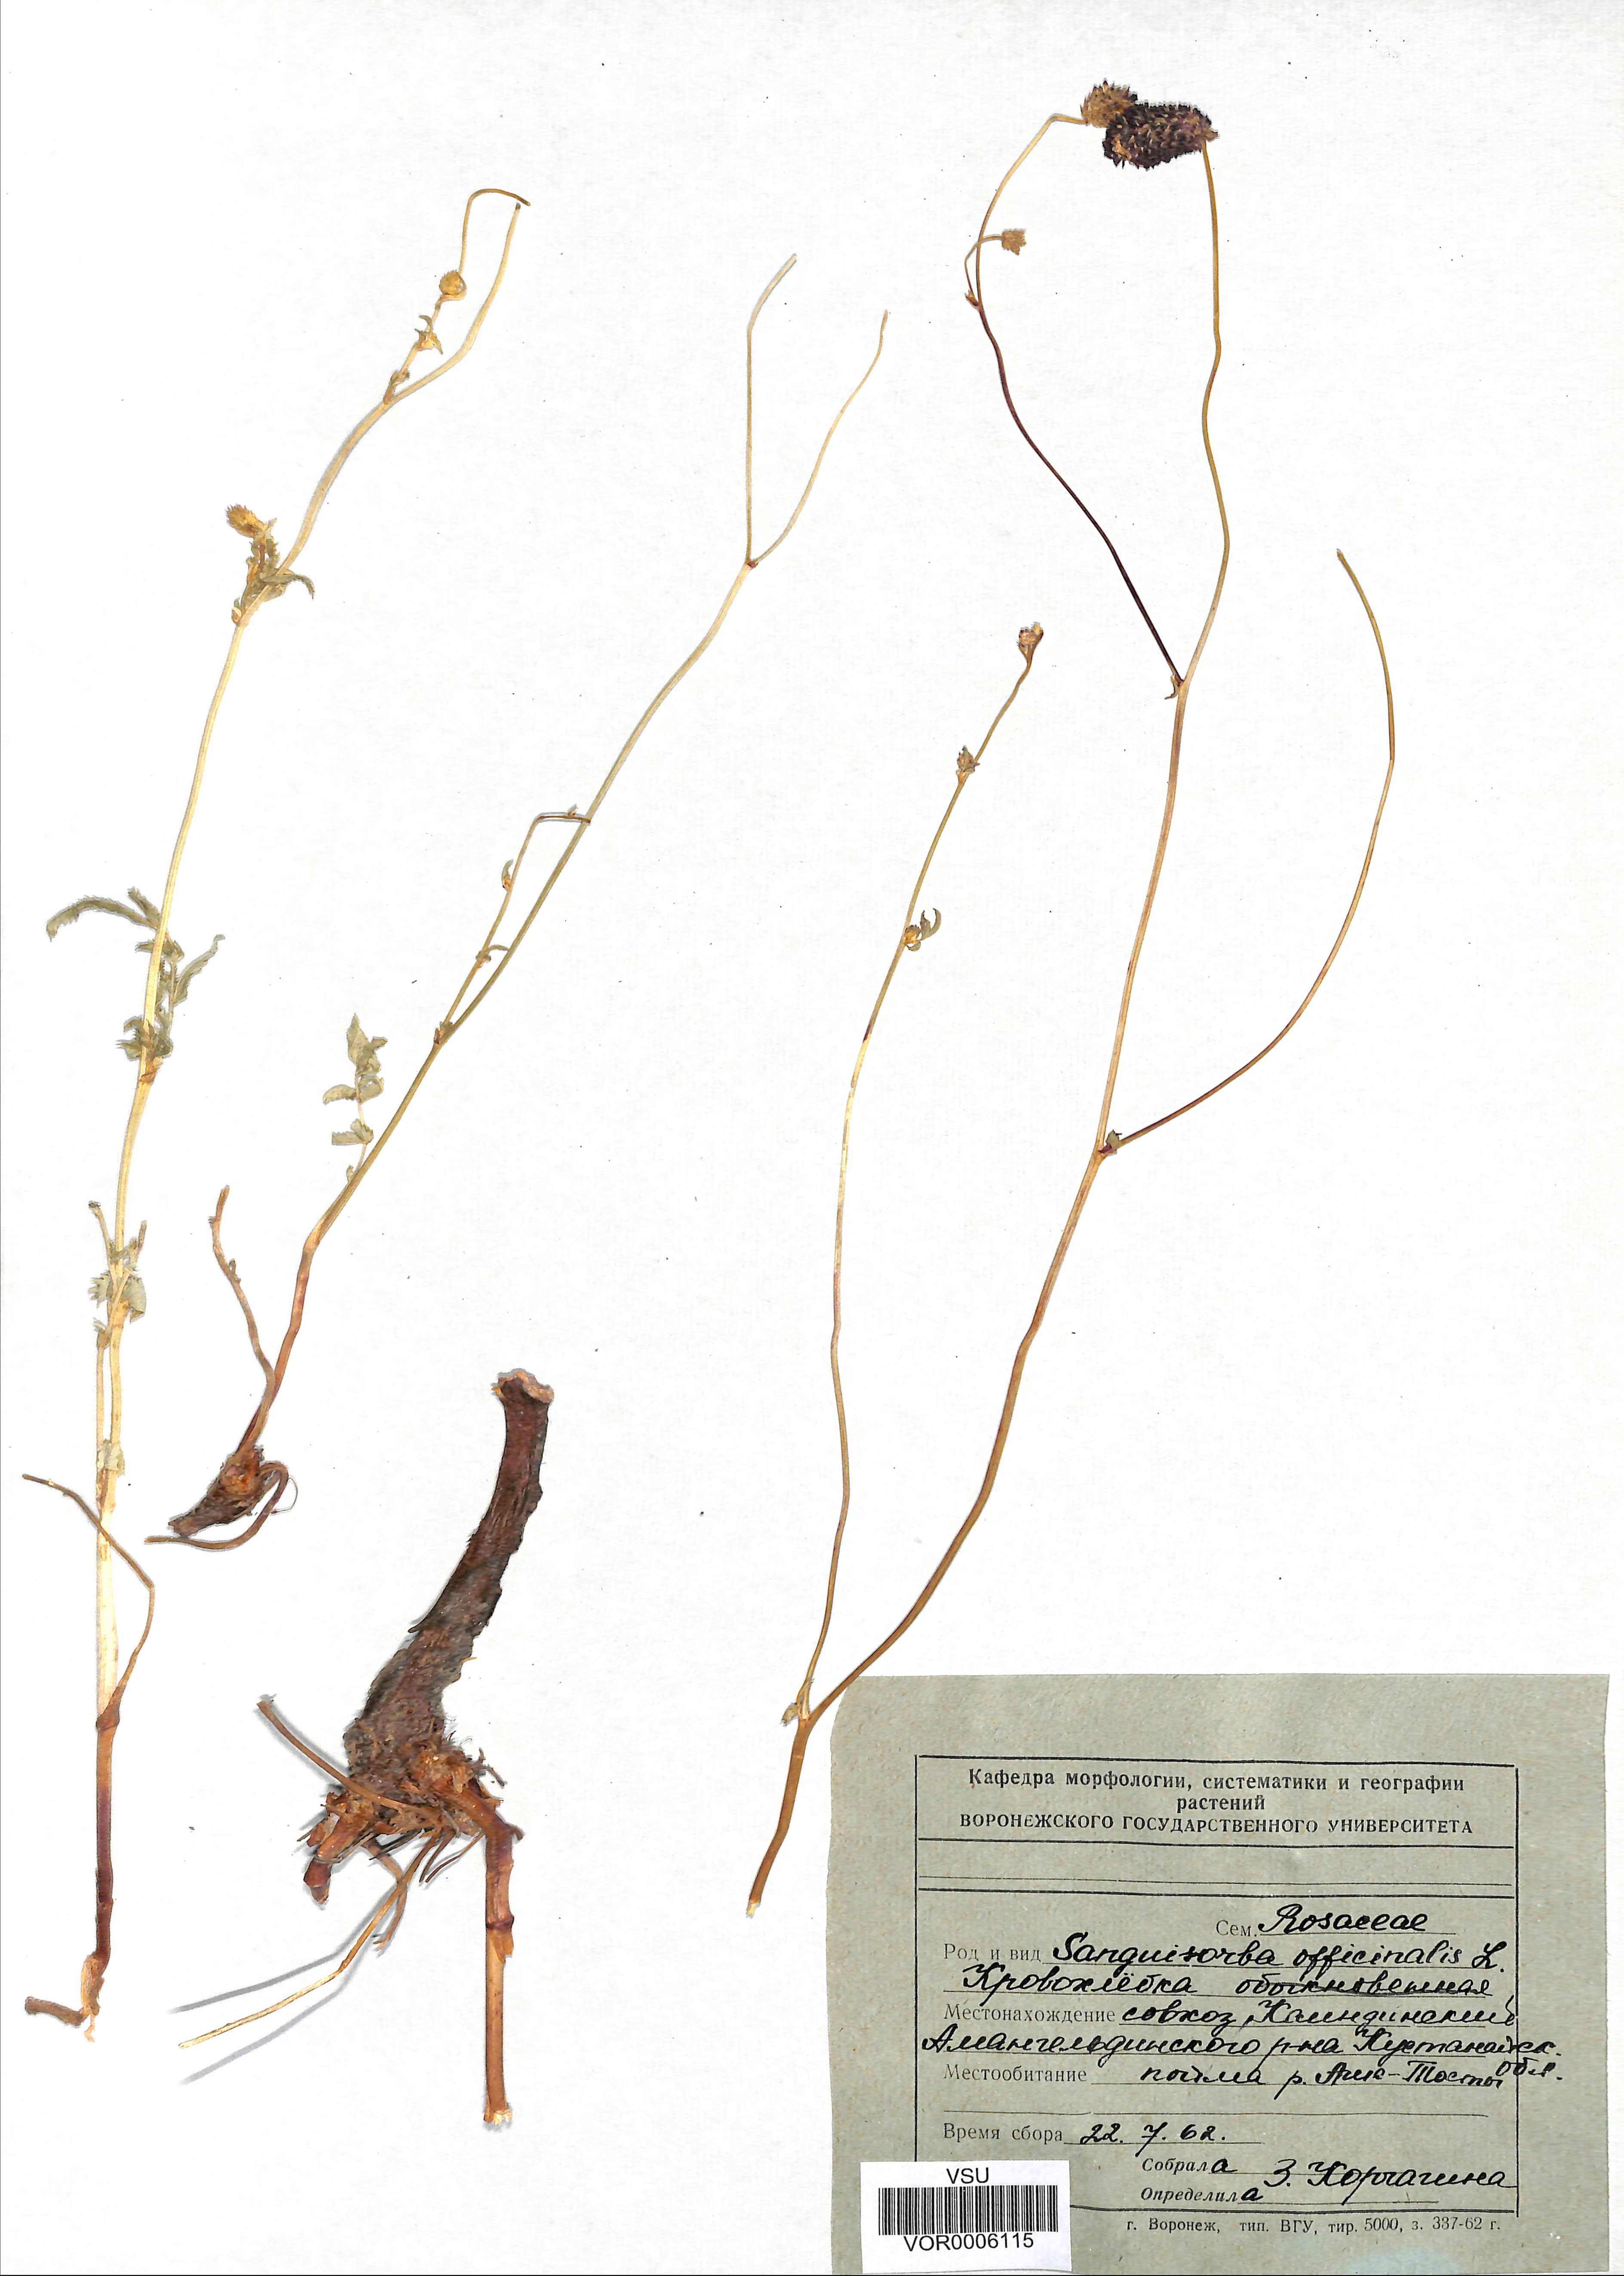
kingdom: Plantae
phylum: Tracheophyta
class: Magnoliopsida
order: Rosales
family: Rosaceae
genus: Sanguisorba
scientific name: Sanguisorba officinalis
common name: Great burnet
